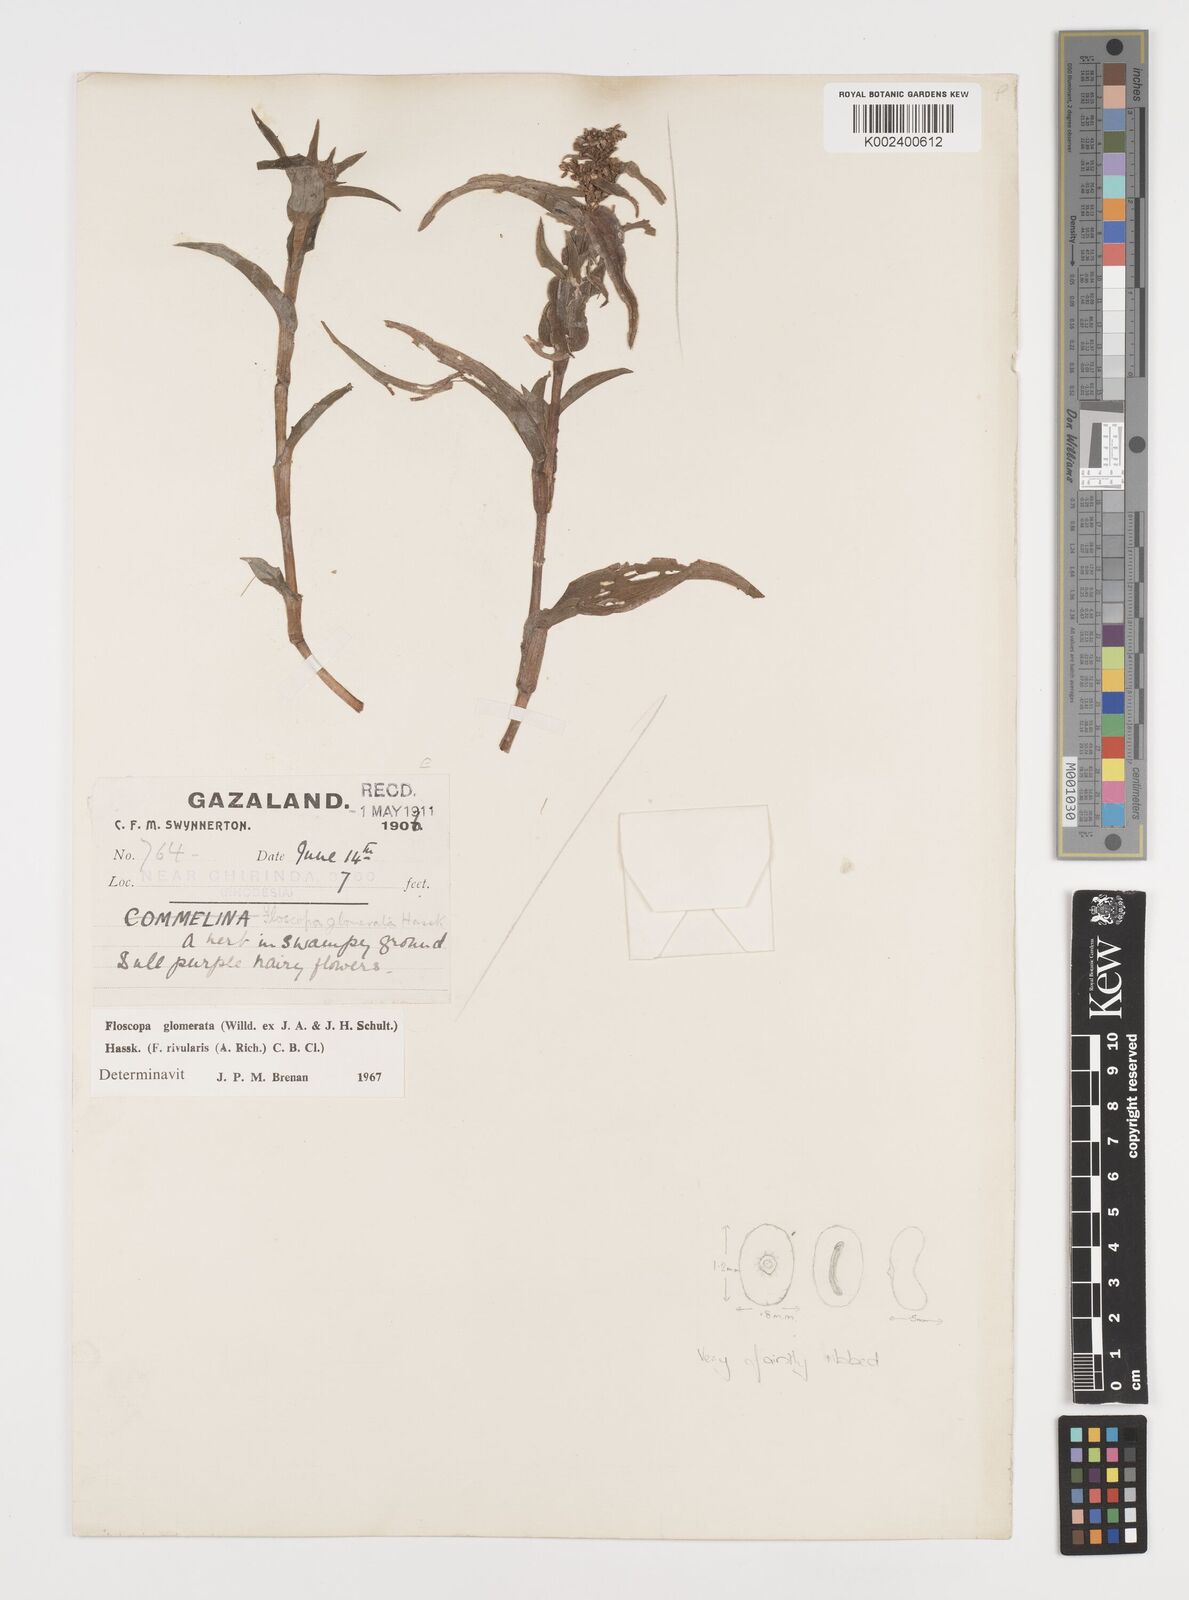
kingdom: Plantae
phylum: Tracheophyta
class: Liliopsida
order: Commelinales
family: Commelinaceae
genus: Floscopa
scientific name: Floscopa glomerata
